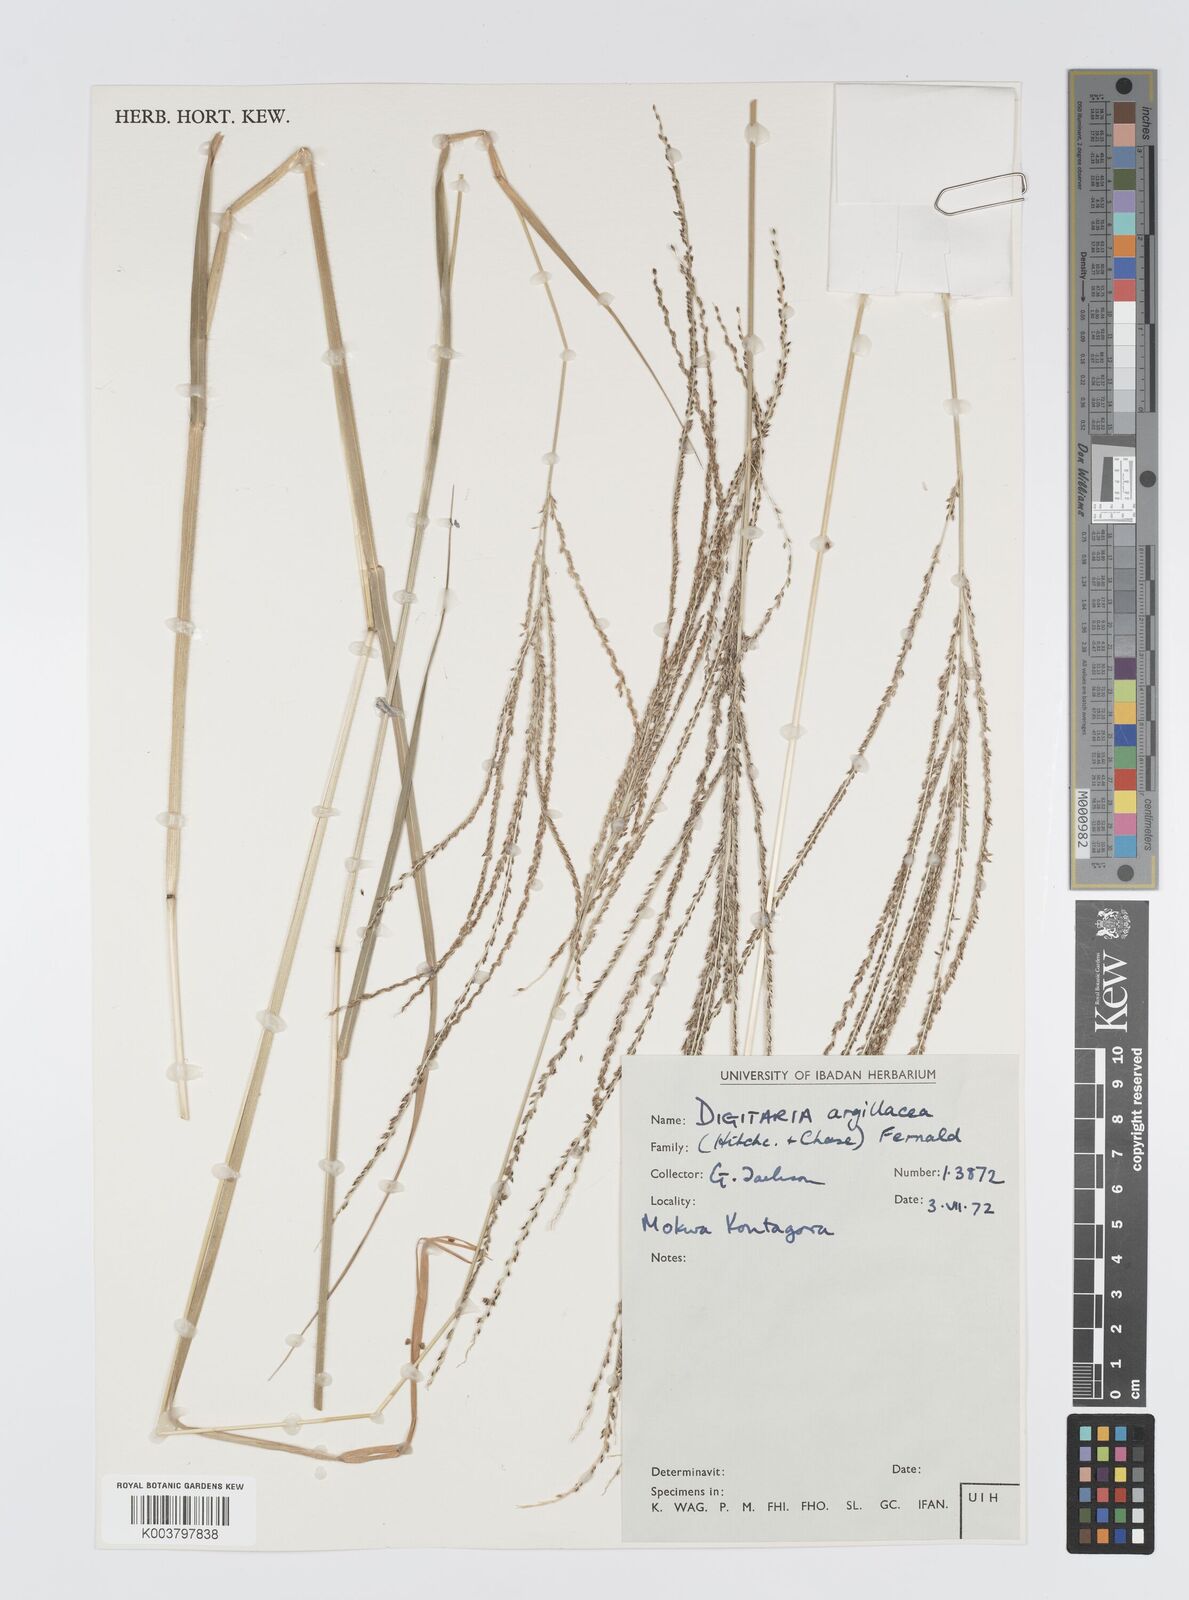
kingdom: Plantae
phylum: Tracheophyta
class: Liliopsida
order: Poales
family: Poaceae
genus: Digitaria
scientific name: Digitaria argillacea
